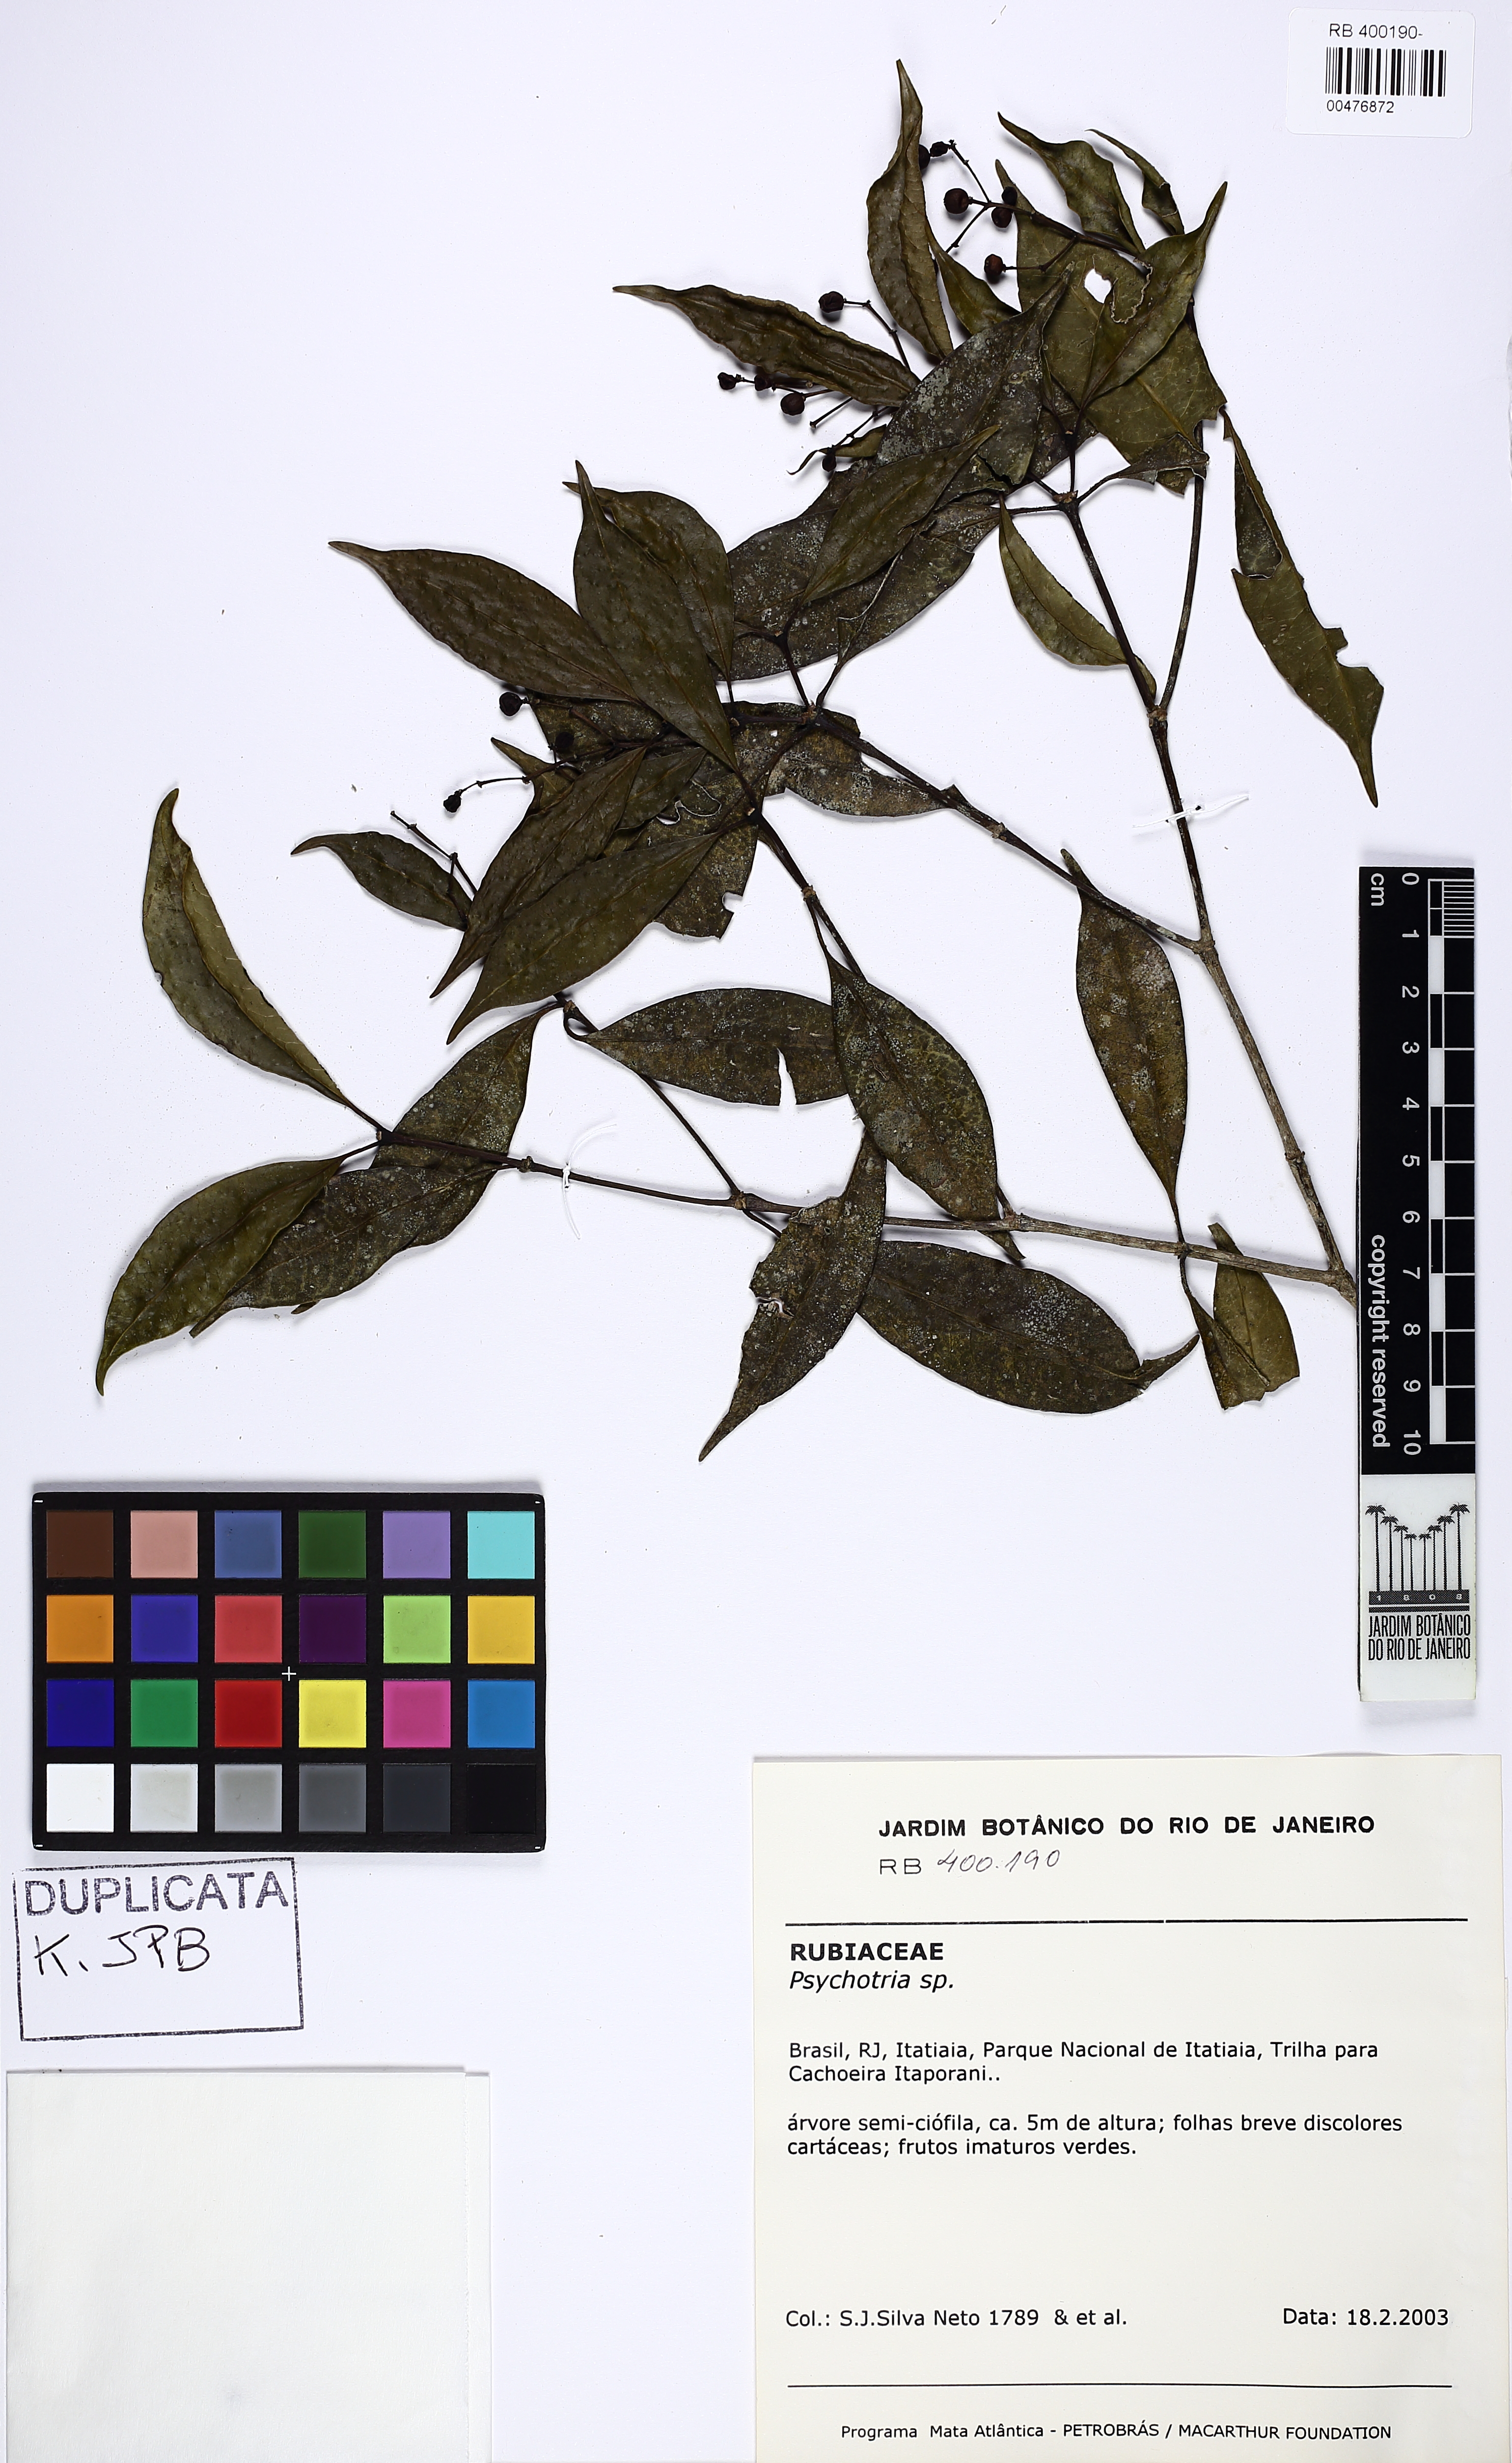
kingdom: Plantae
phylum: Tracheophyta
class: Magnoliopsida
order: Gentianales
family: Rubiaceae
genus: Rudgea
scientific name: Rudgea recurva
